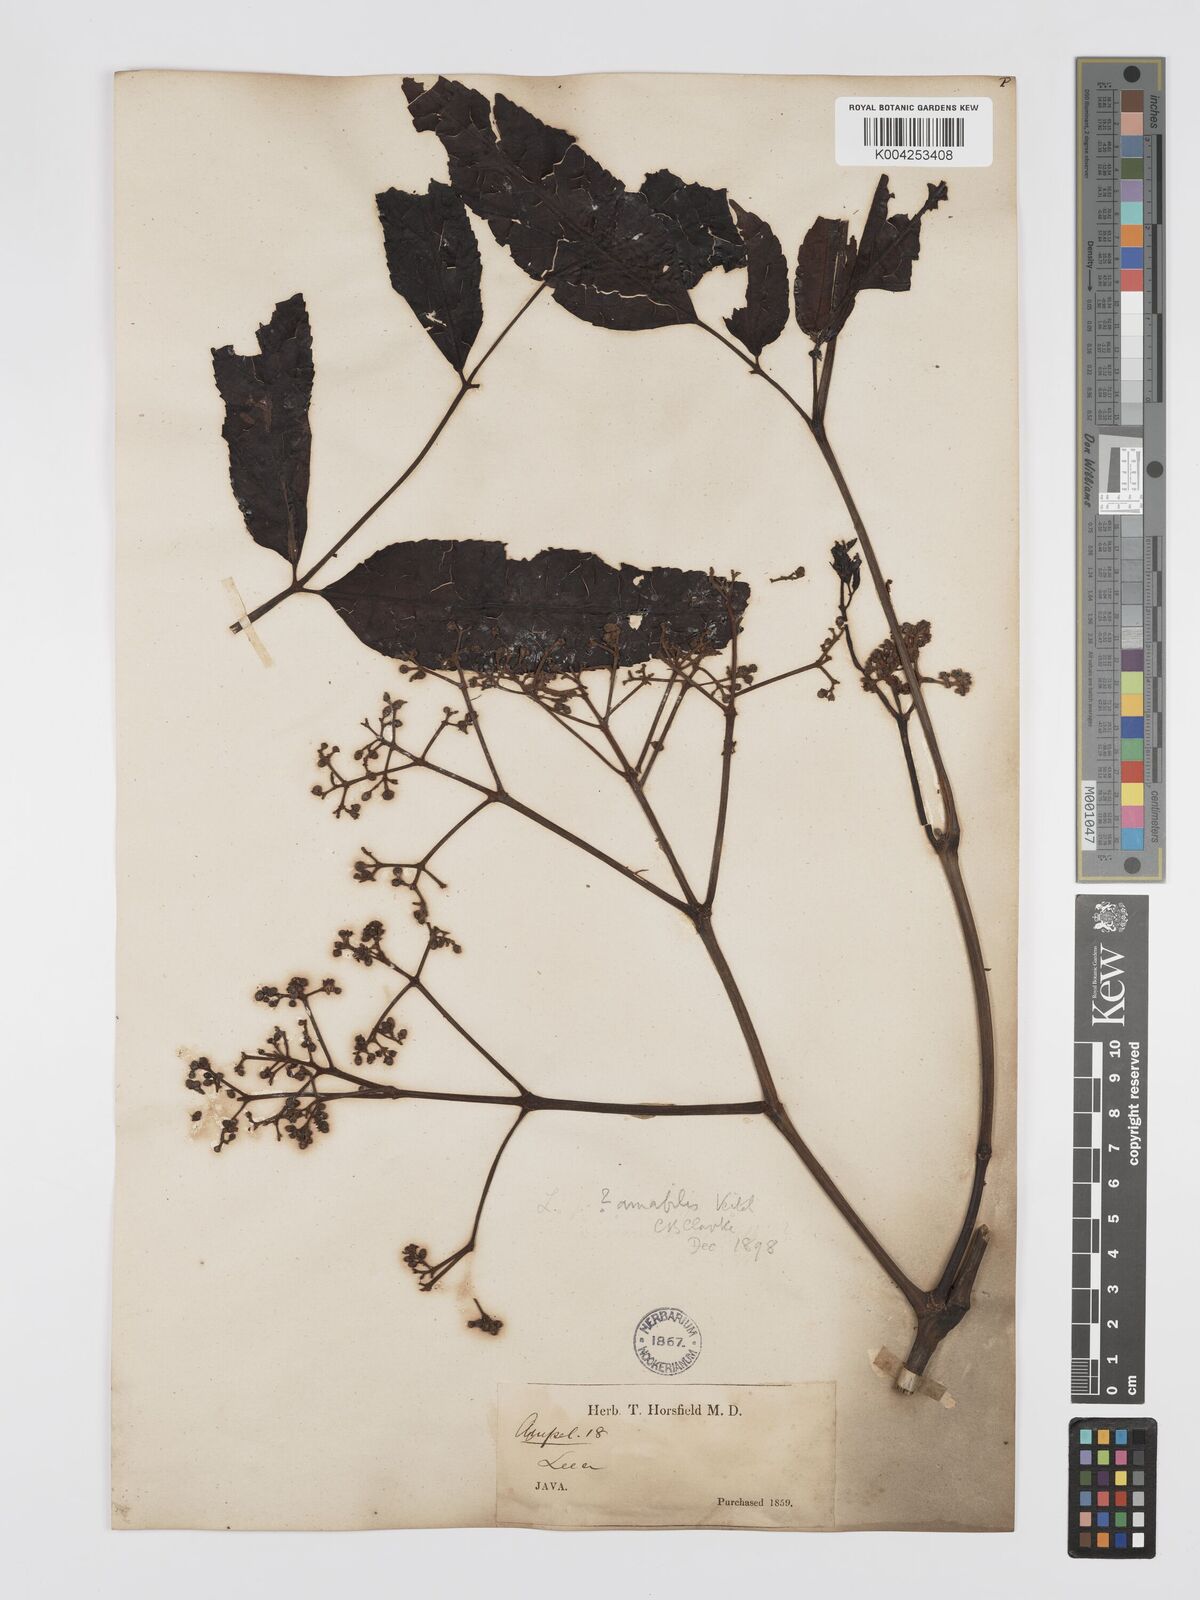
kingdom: Plantae
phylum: Tracheophyta
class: Magnoliopsida
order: Vitales
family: Vitaceae
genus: Leea
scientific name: Leea amabilis
